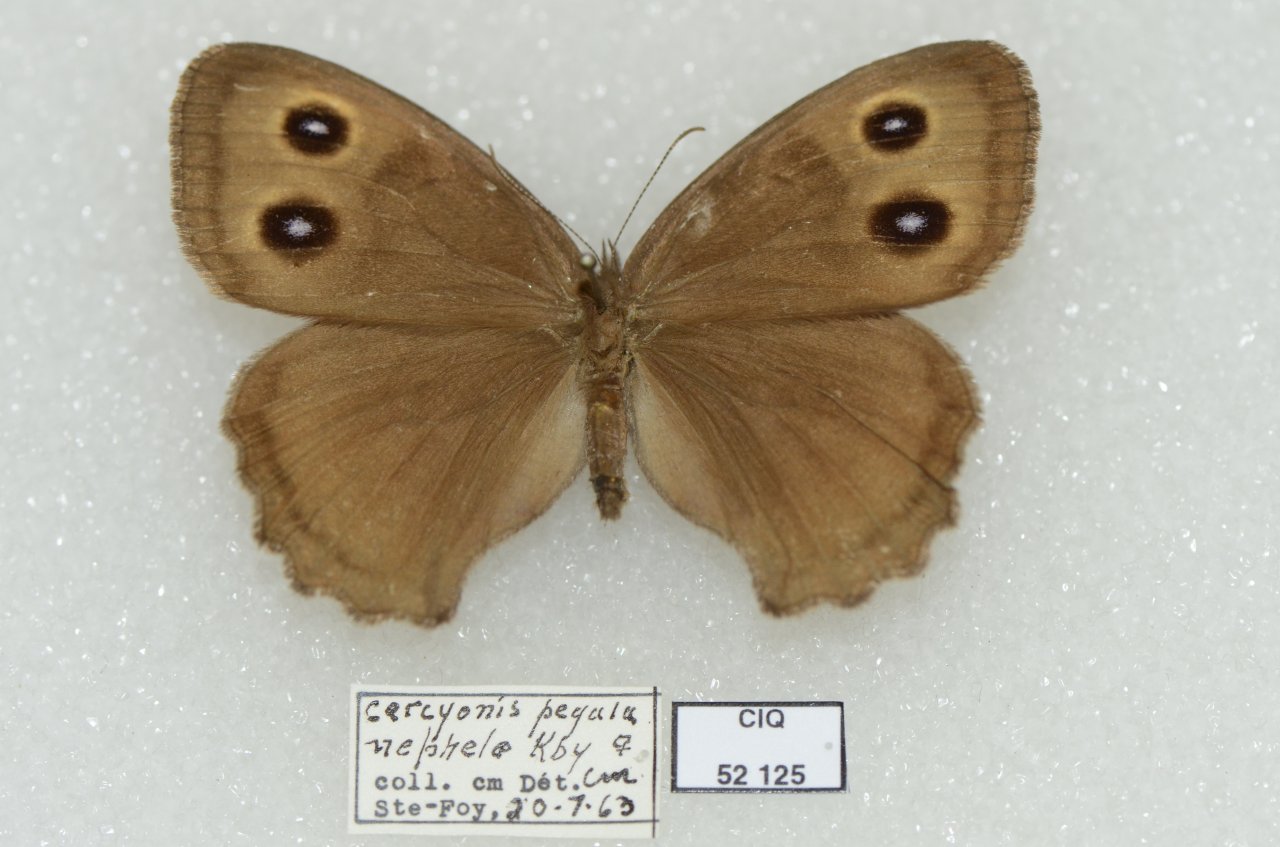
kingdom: Animalia
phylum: Arthropoda
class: Insecta
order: Lepidoptera
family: Nymphalidae
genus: Cercyonis
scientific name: Cercyonis pegala
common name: Common Wood-Nymph
